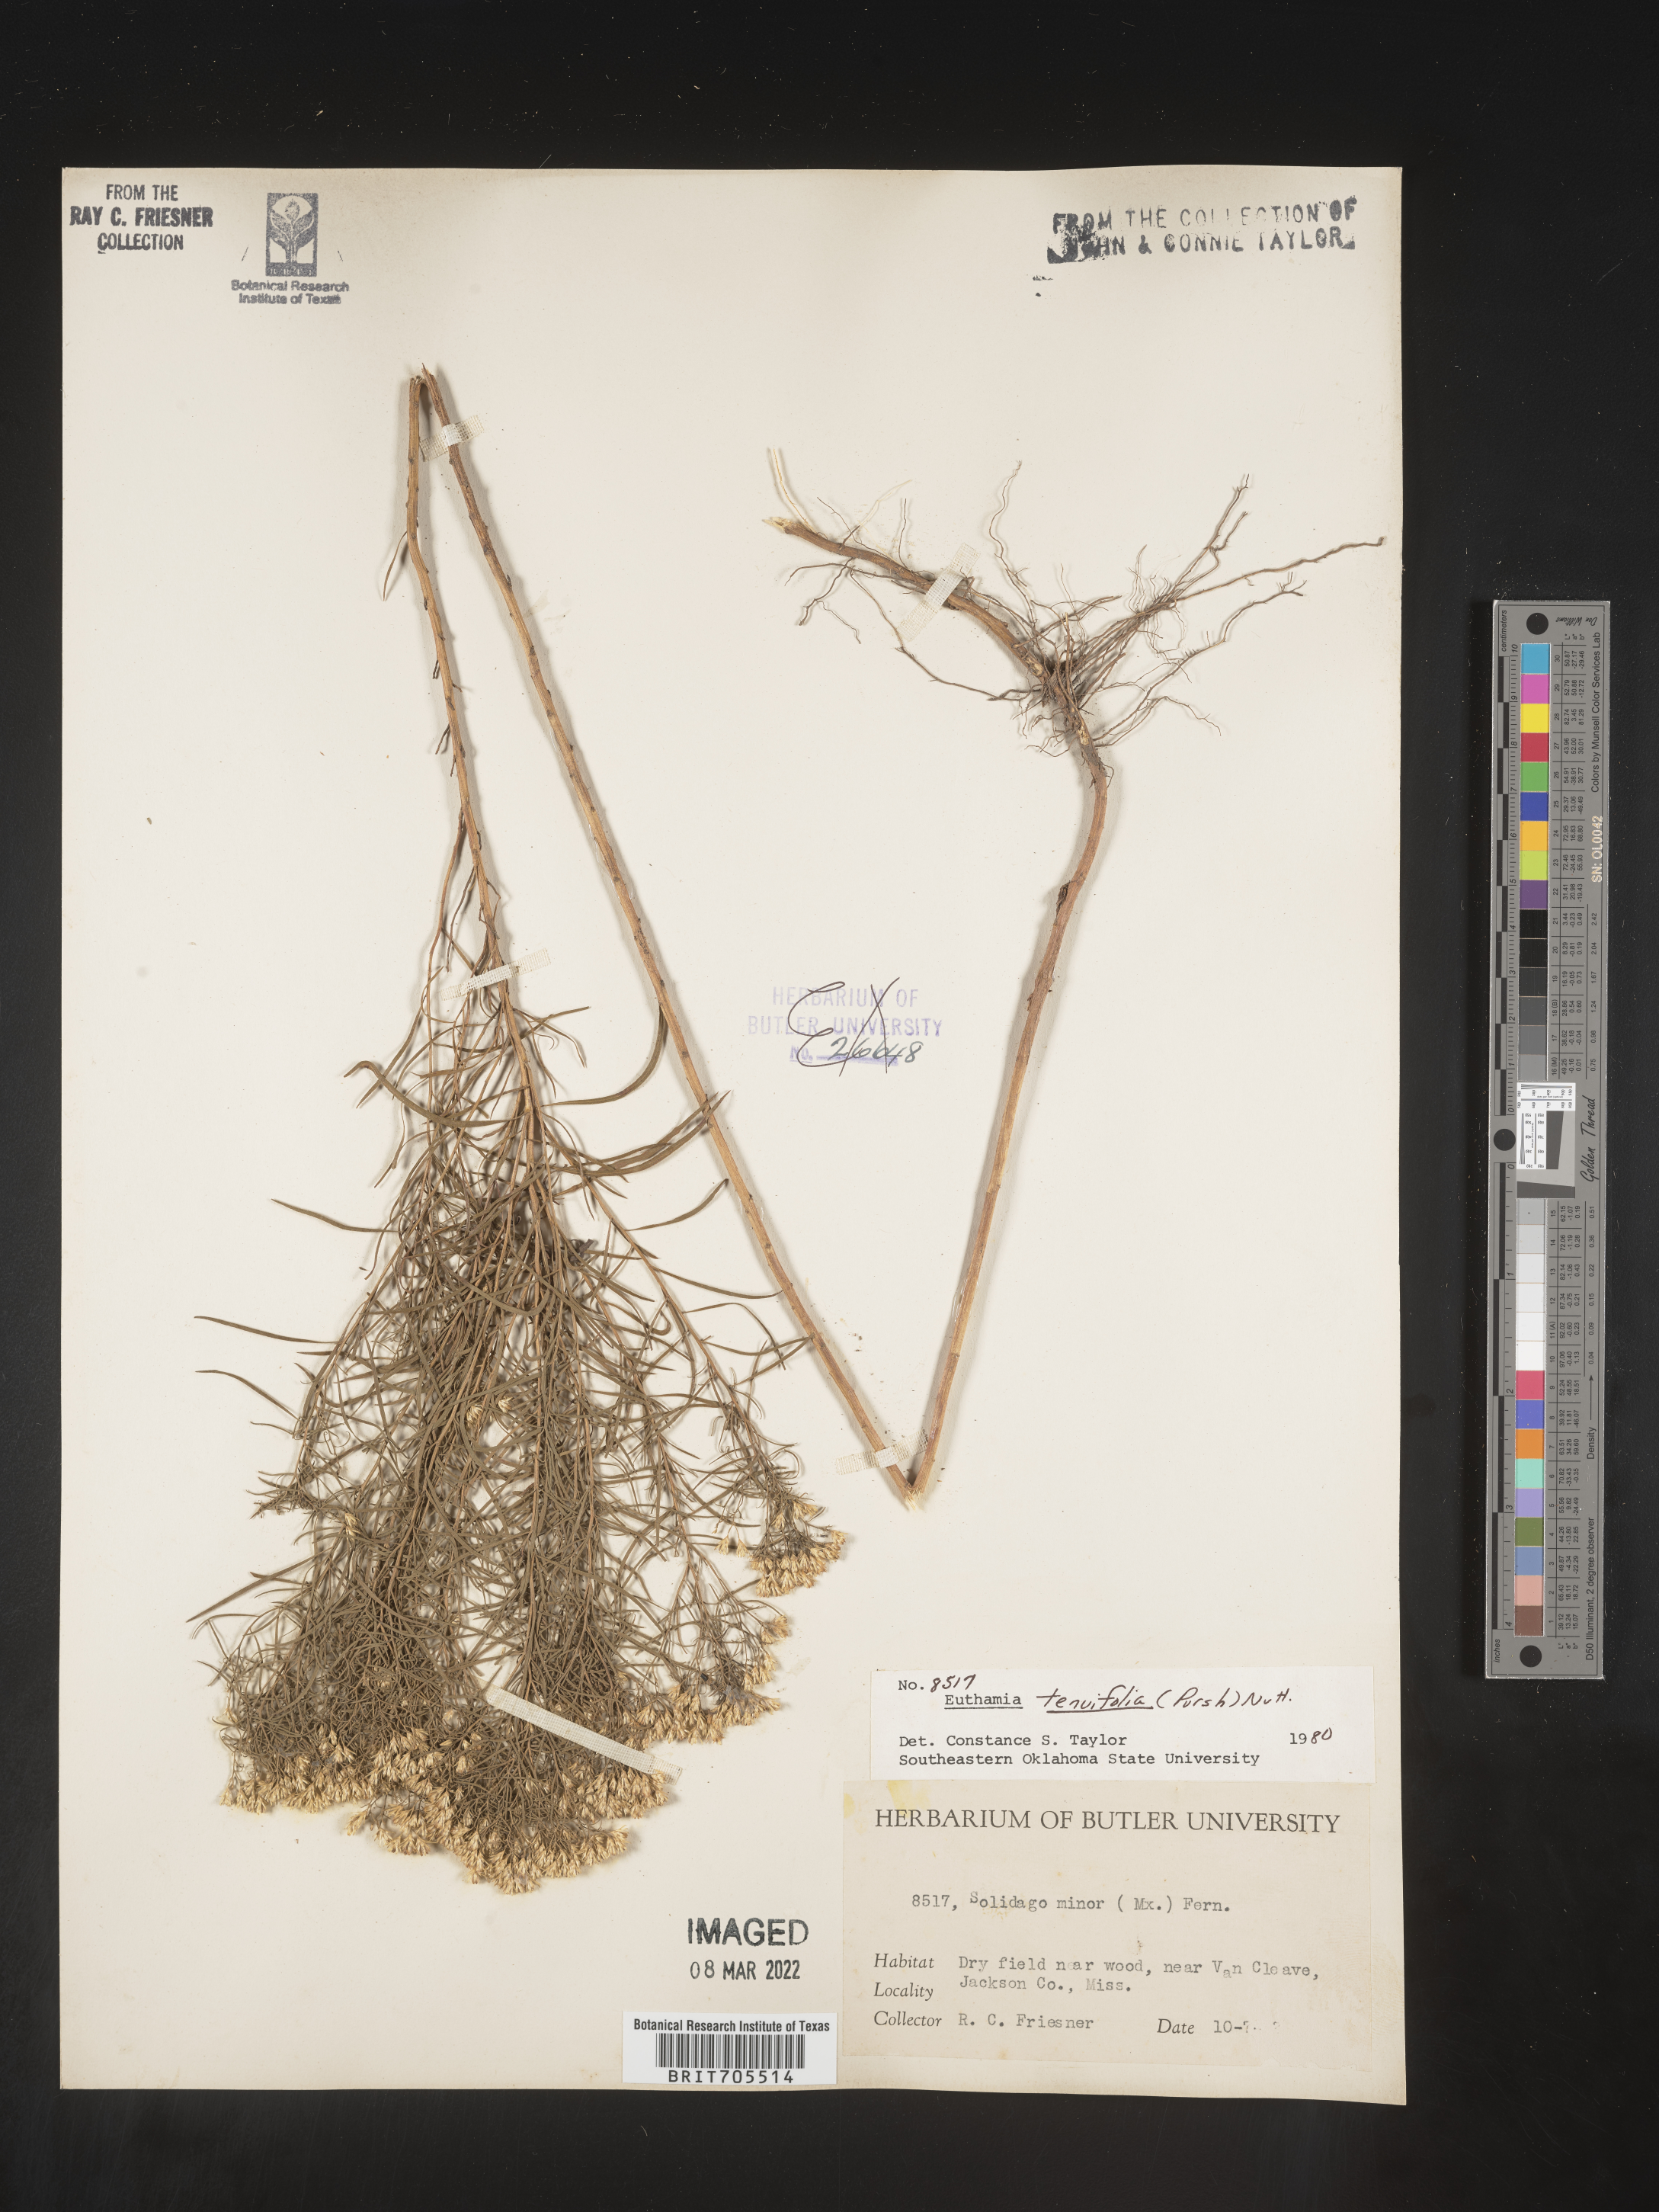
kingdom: Plantae
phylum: Tracheophyta
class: Magnoliopsida
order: Asterales
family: Asteraceae
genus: Euthamia
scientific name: Euthamia caroliniana
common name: Coastal plain goldentop
